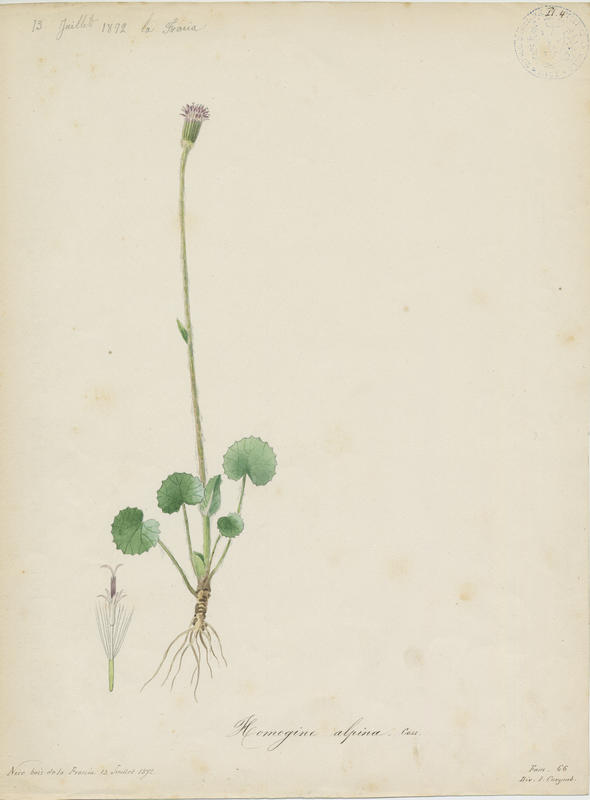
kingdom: Plantae
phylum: Tracheophyta
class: Magnoliopsida
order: Asterales
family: Asteraceae
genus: Homogyne
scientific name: Homogyne alpina
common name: Purple colt's-foot
